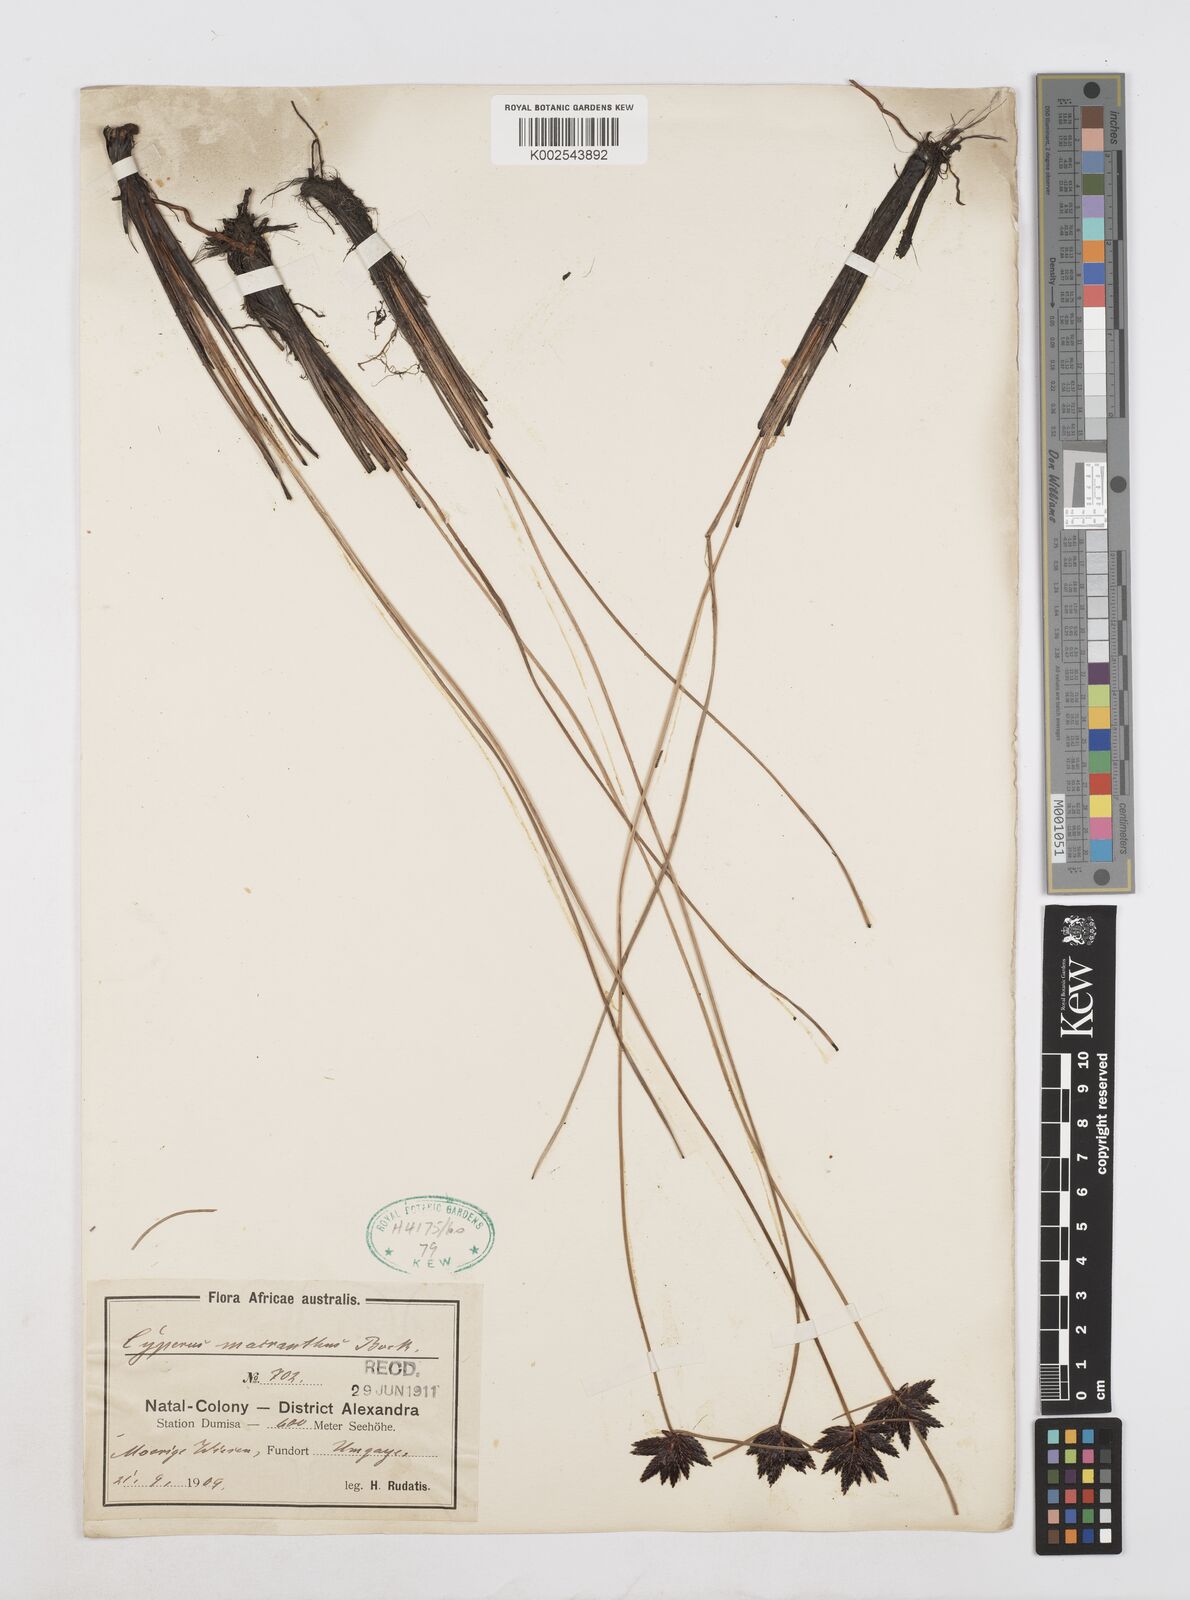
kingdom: Plantae
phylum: Tracheophyta
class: Liliopsida
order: Poales
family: Cyperaceae
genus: Cyperus
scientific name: Cyperus nigricans
